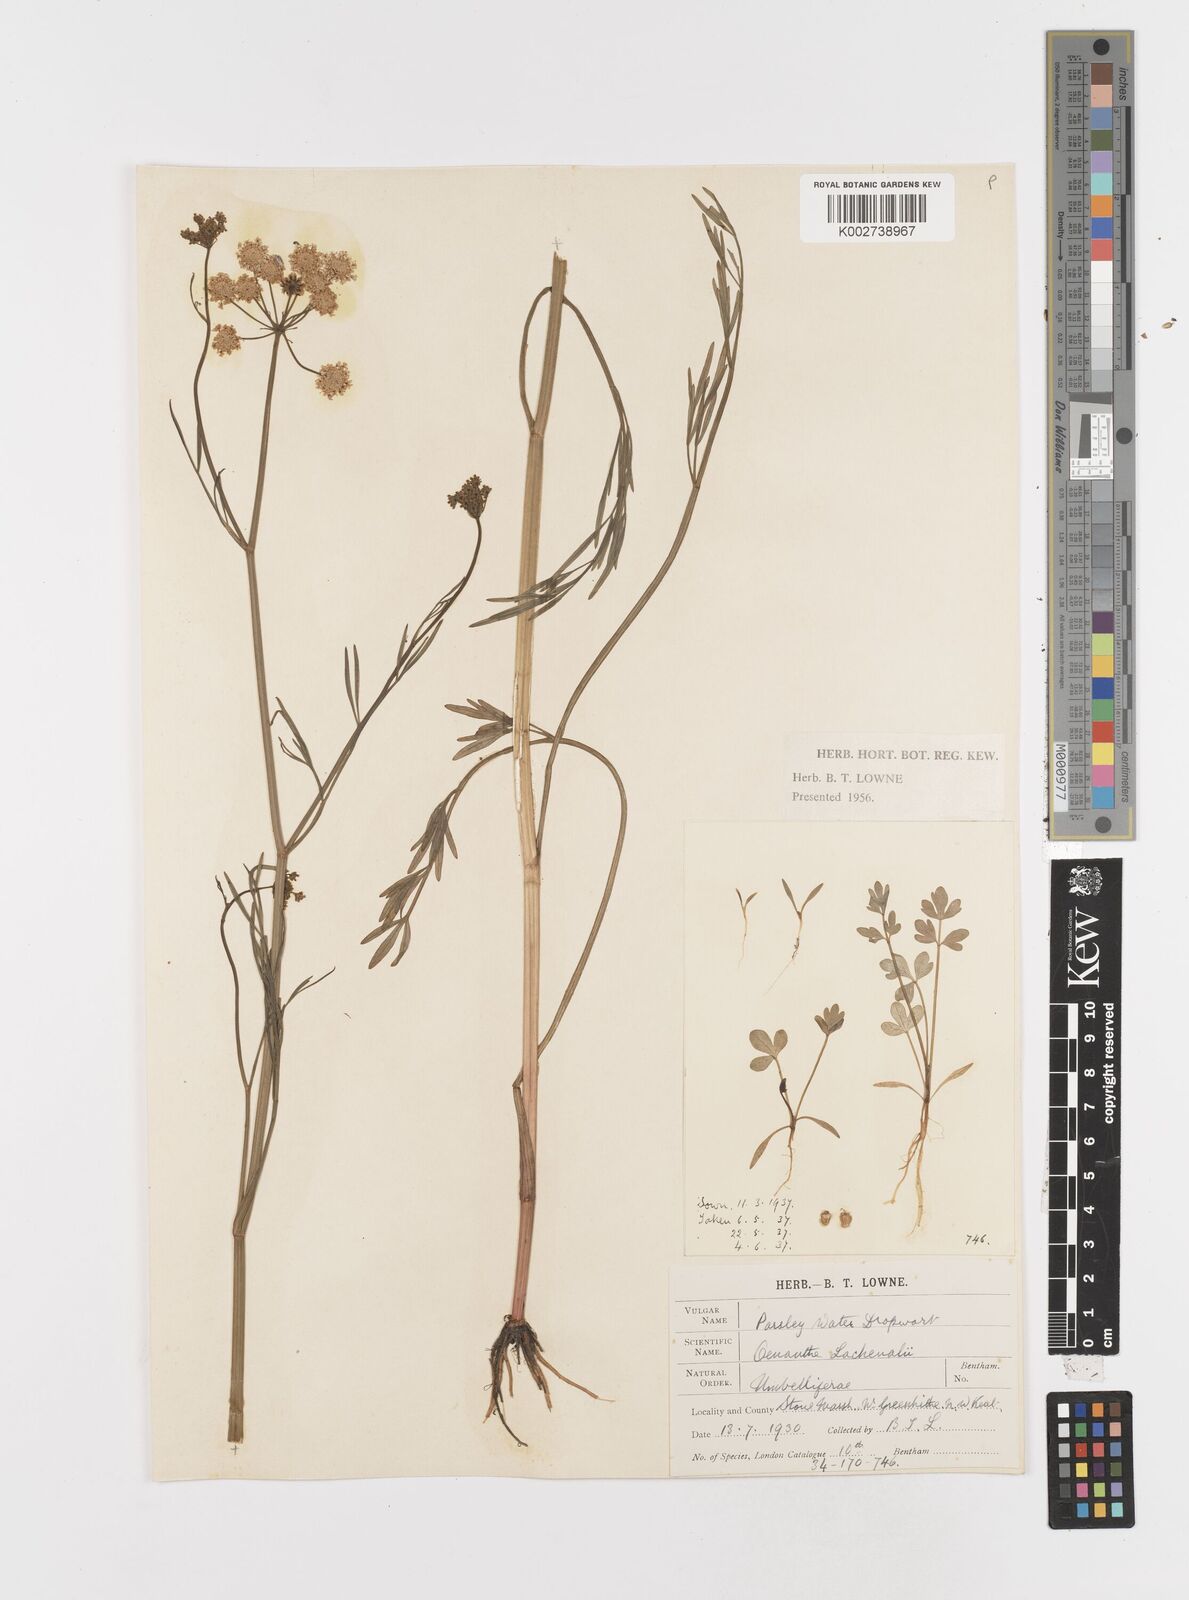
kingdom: Plantae
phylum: Tracheophyta
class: Magnoliopsida
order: Apiales
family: Apiaceae
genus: Oenanthe
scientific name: Oenanthe lachenalii
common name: Parsley water-dropwort
